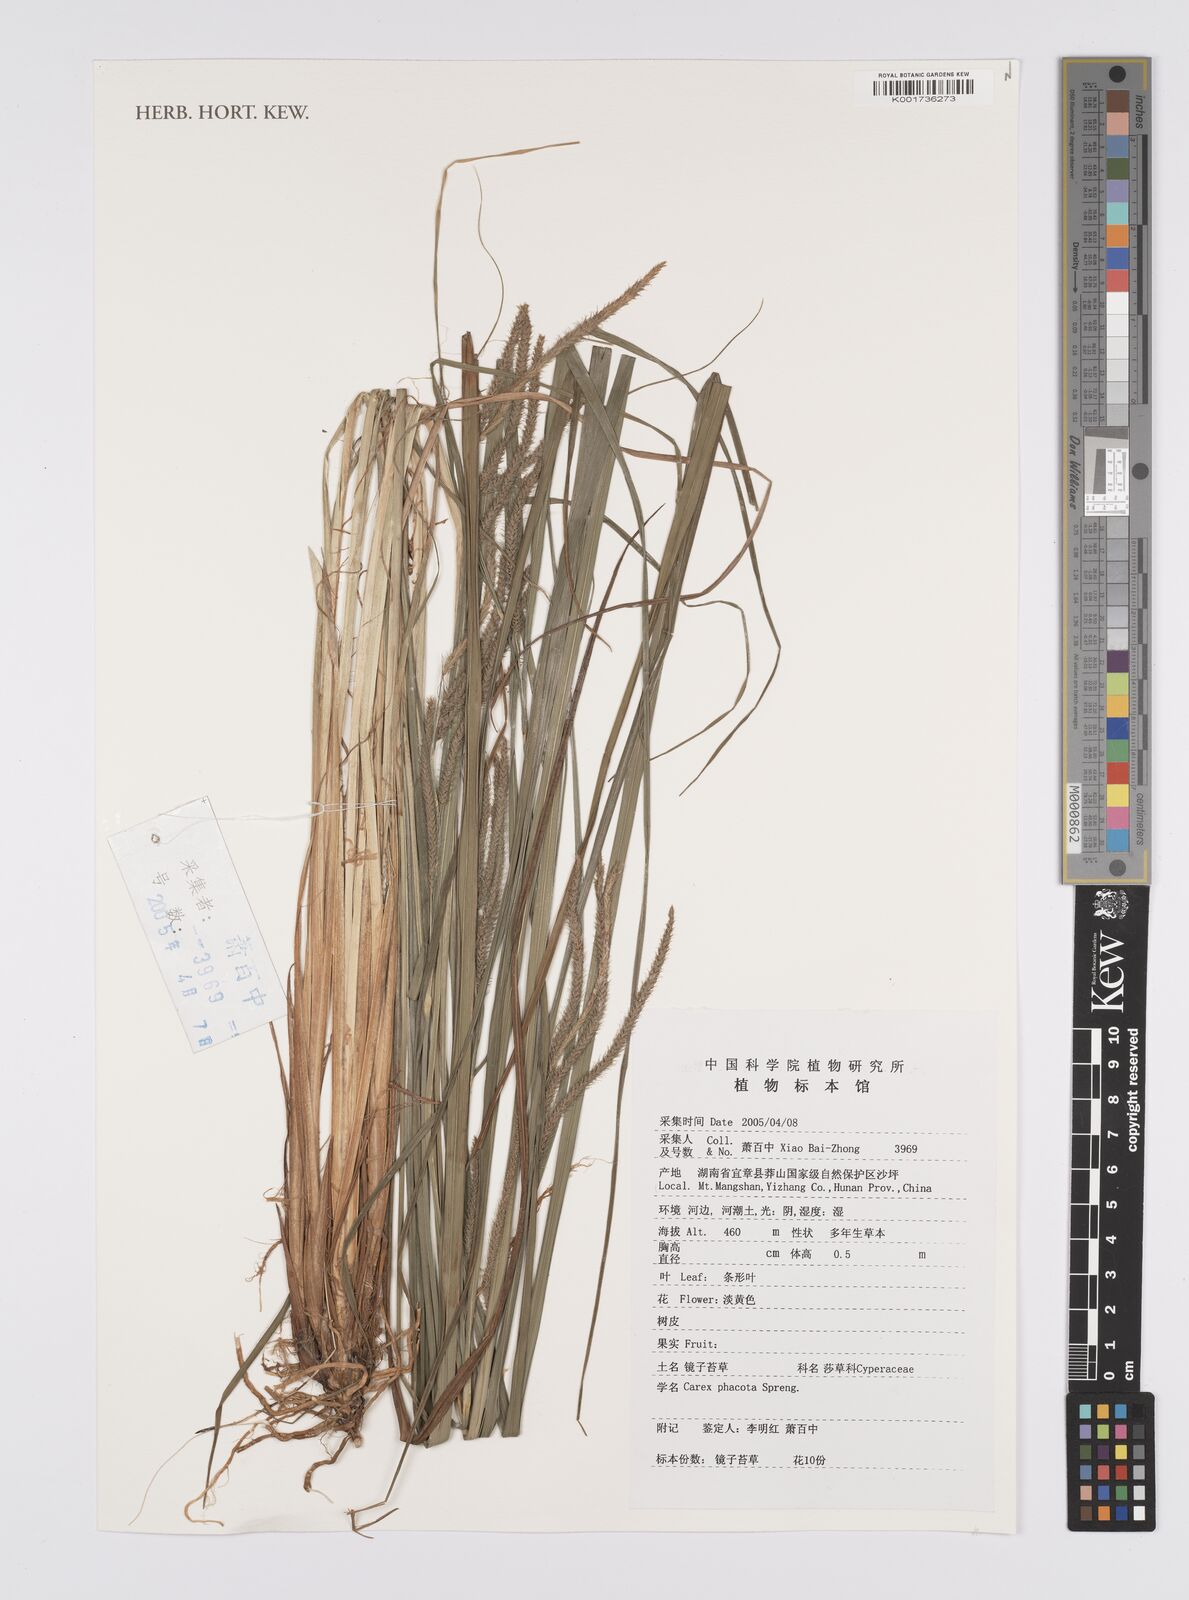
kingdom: Plantae
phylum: Tracheophyta
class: Liliopsida
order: Poales
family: Cyperaceae
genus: Carex
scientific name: Carex phacota
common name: Lakeshore sedge
